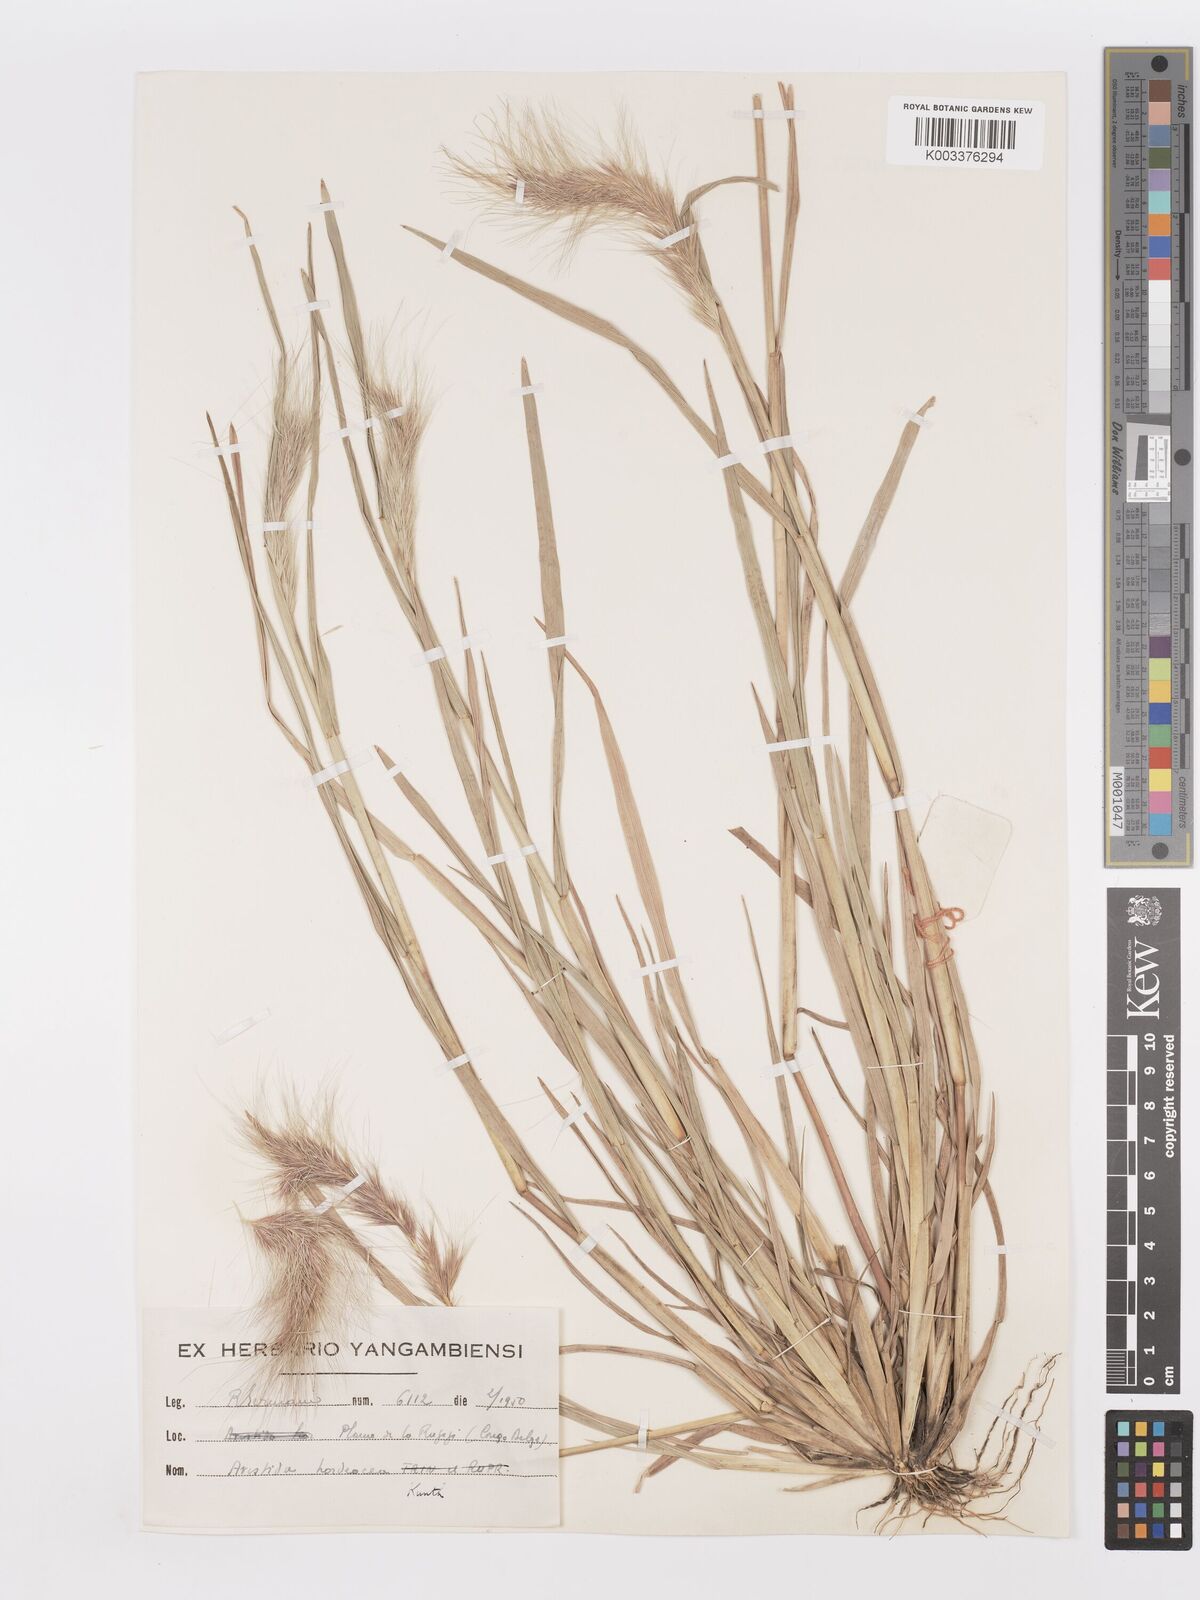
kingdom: Plantae
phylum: Tracheophyta
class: Liliopsida
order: Poales
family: Poaceae
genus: Aristida
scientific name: Aristida hordeacea
